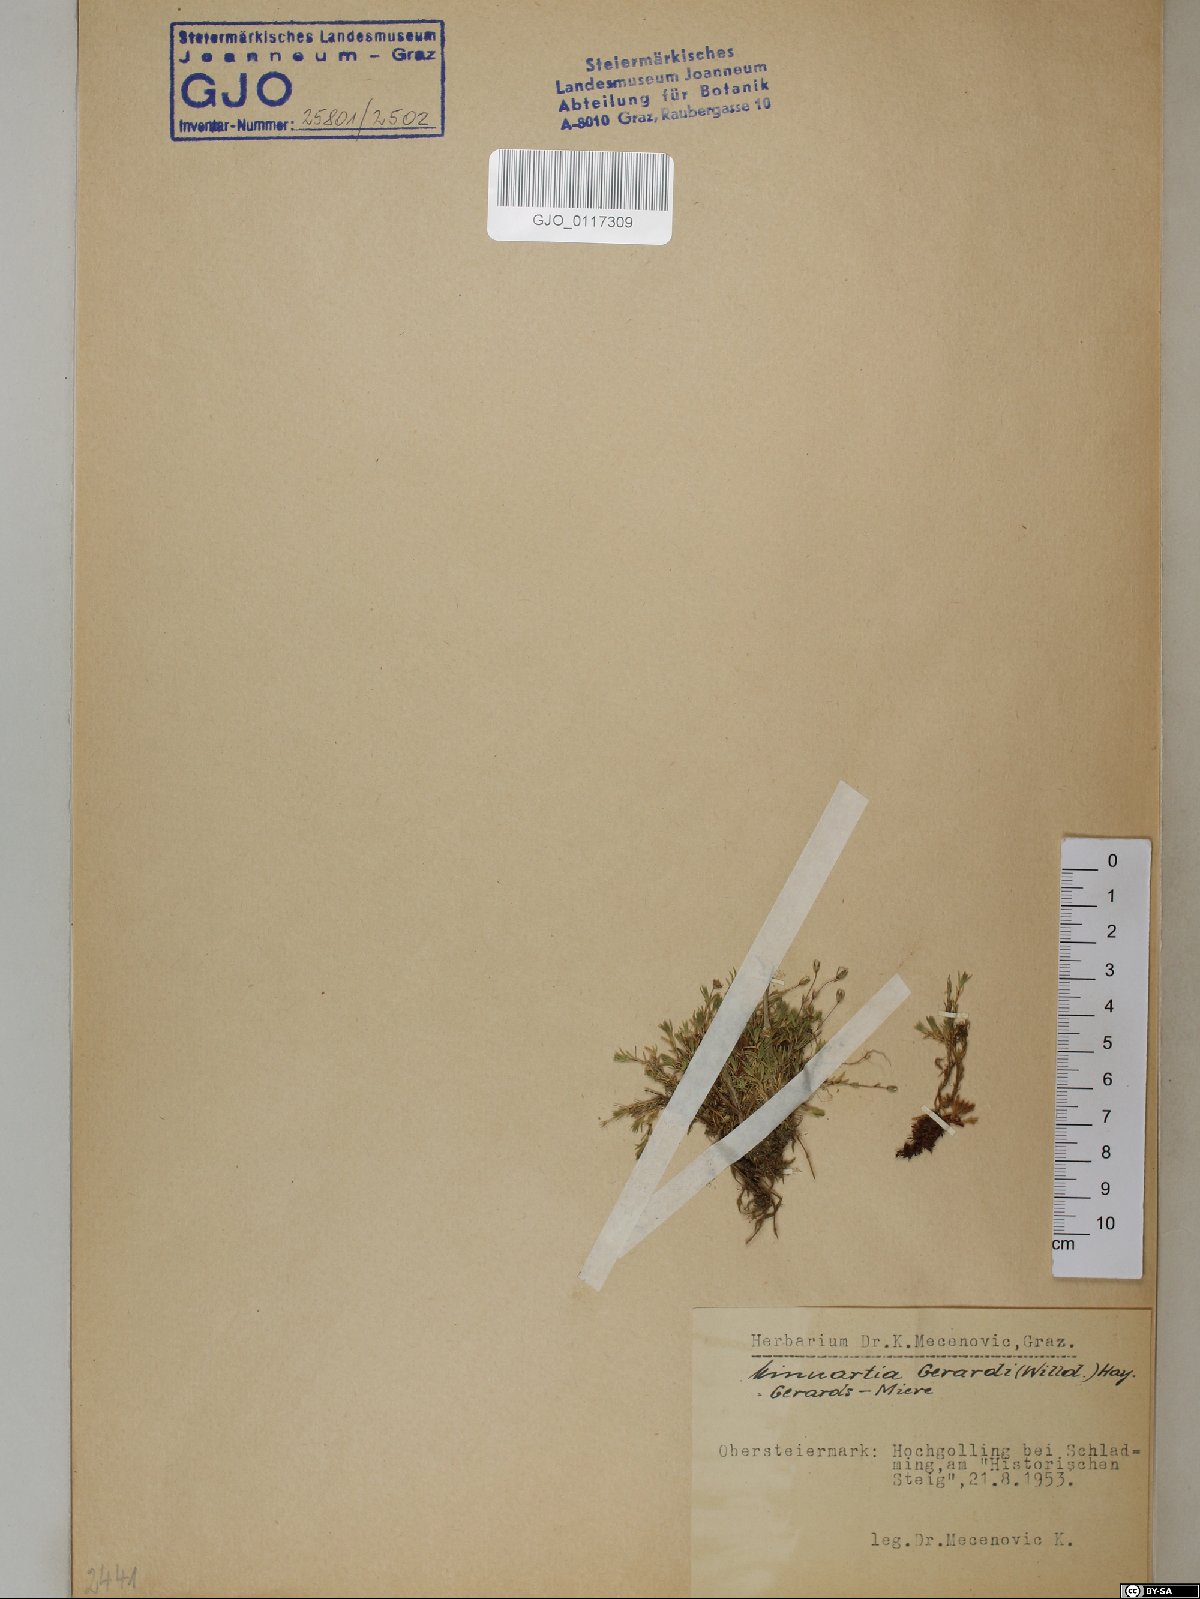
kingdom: Plantae
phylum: Tracheophyta
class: Magnoliopsida
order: Caryophyllales
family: Caryophyllaceae
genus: Sabulina
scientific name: Sabulina verna
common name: Spring sandwort
